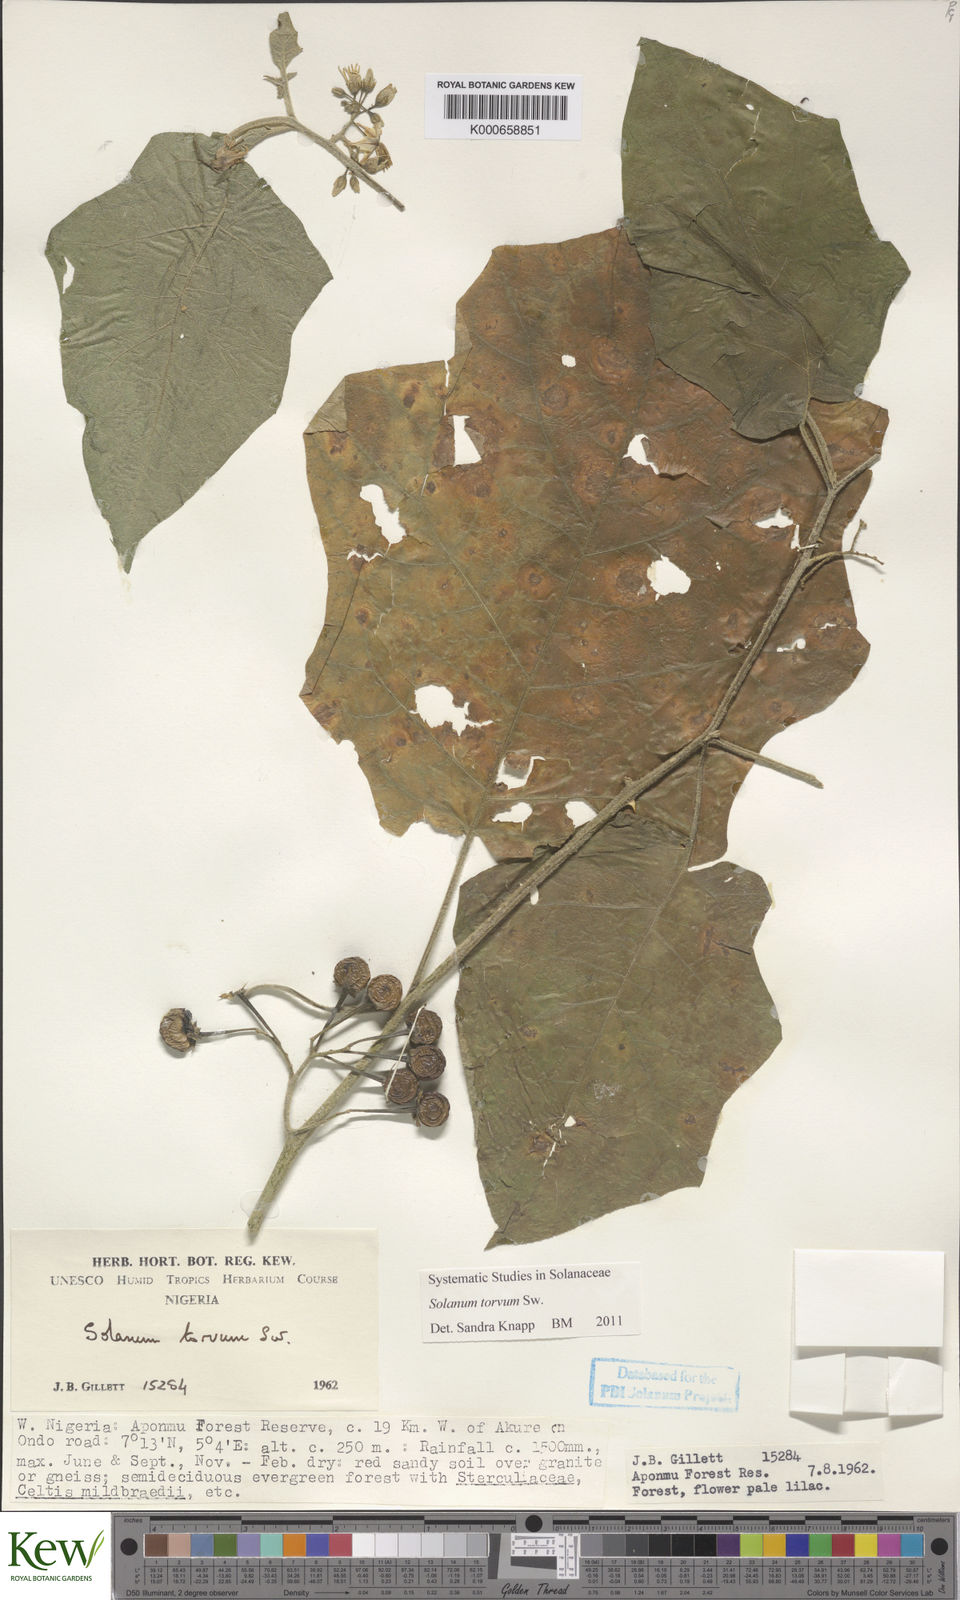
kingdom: Plantae
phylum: Tracheophyta
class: Magnoliopsida
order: Solanales
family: Solanaceae
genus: Solanum
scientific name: Solanum torvum
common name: Turkey berry
